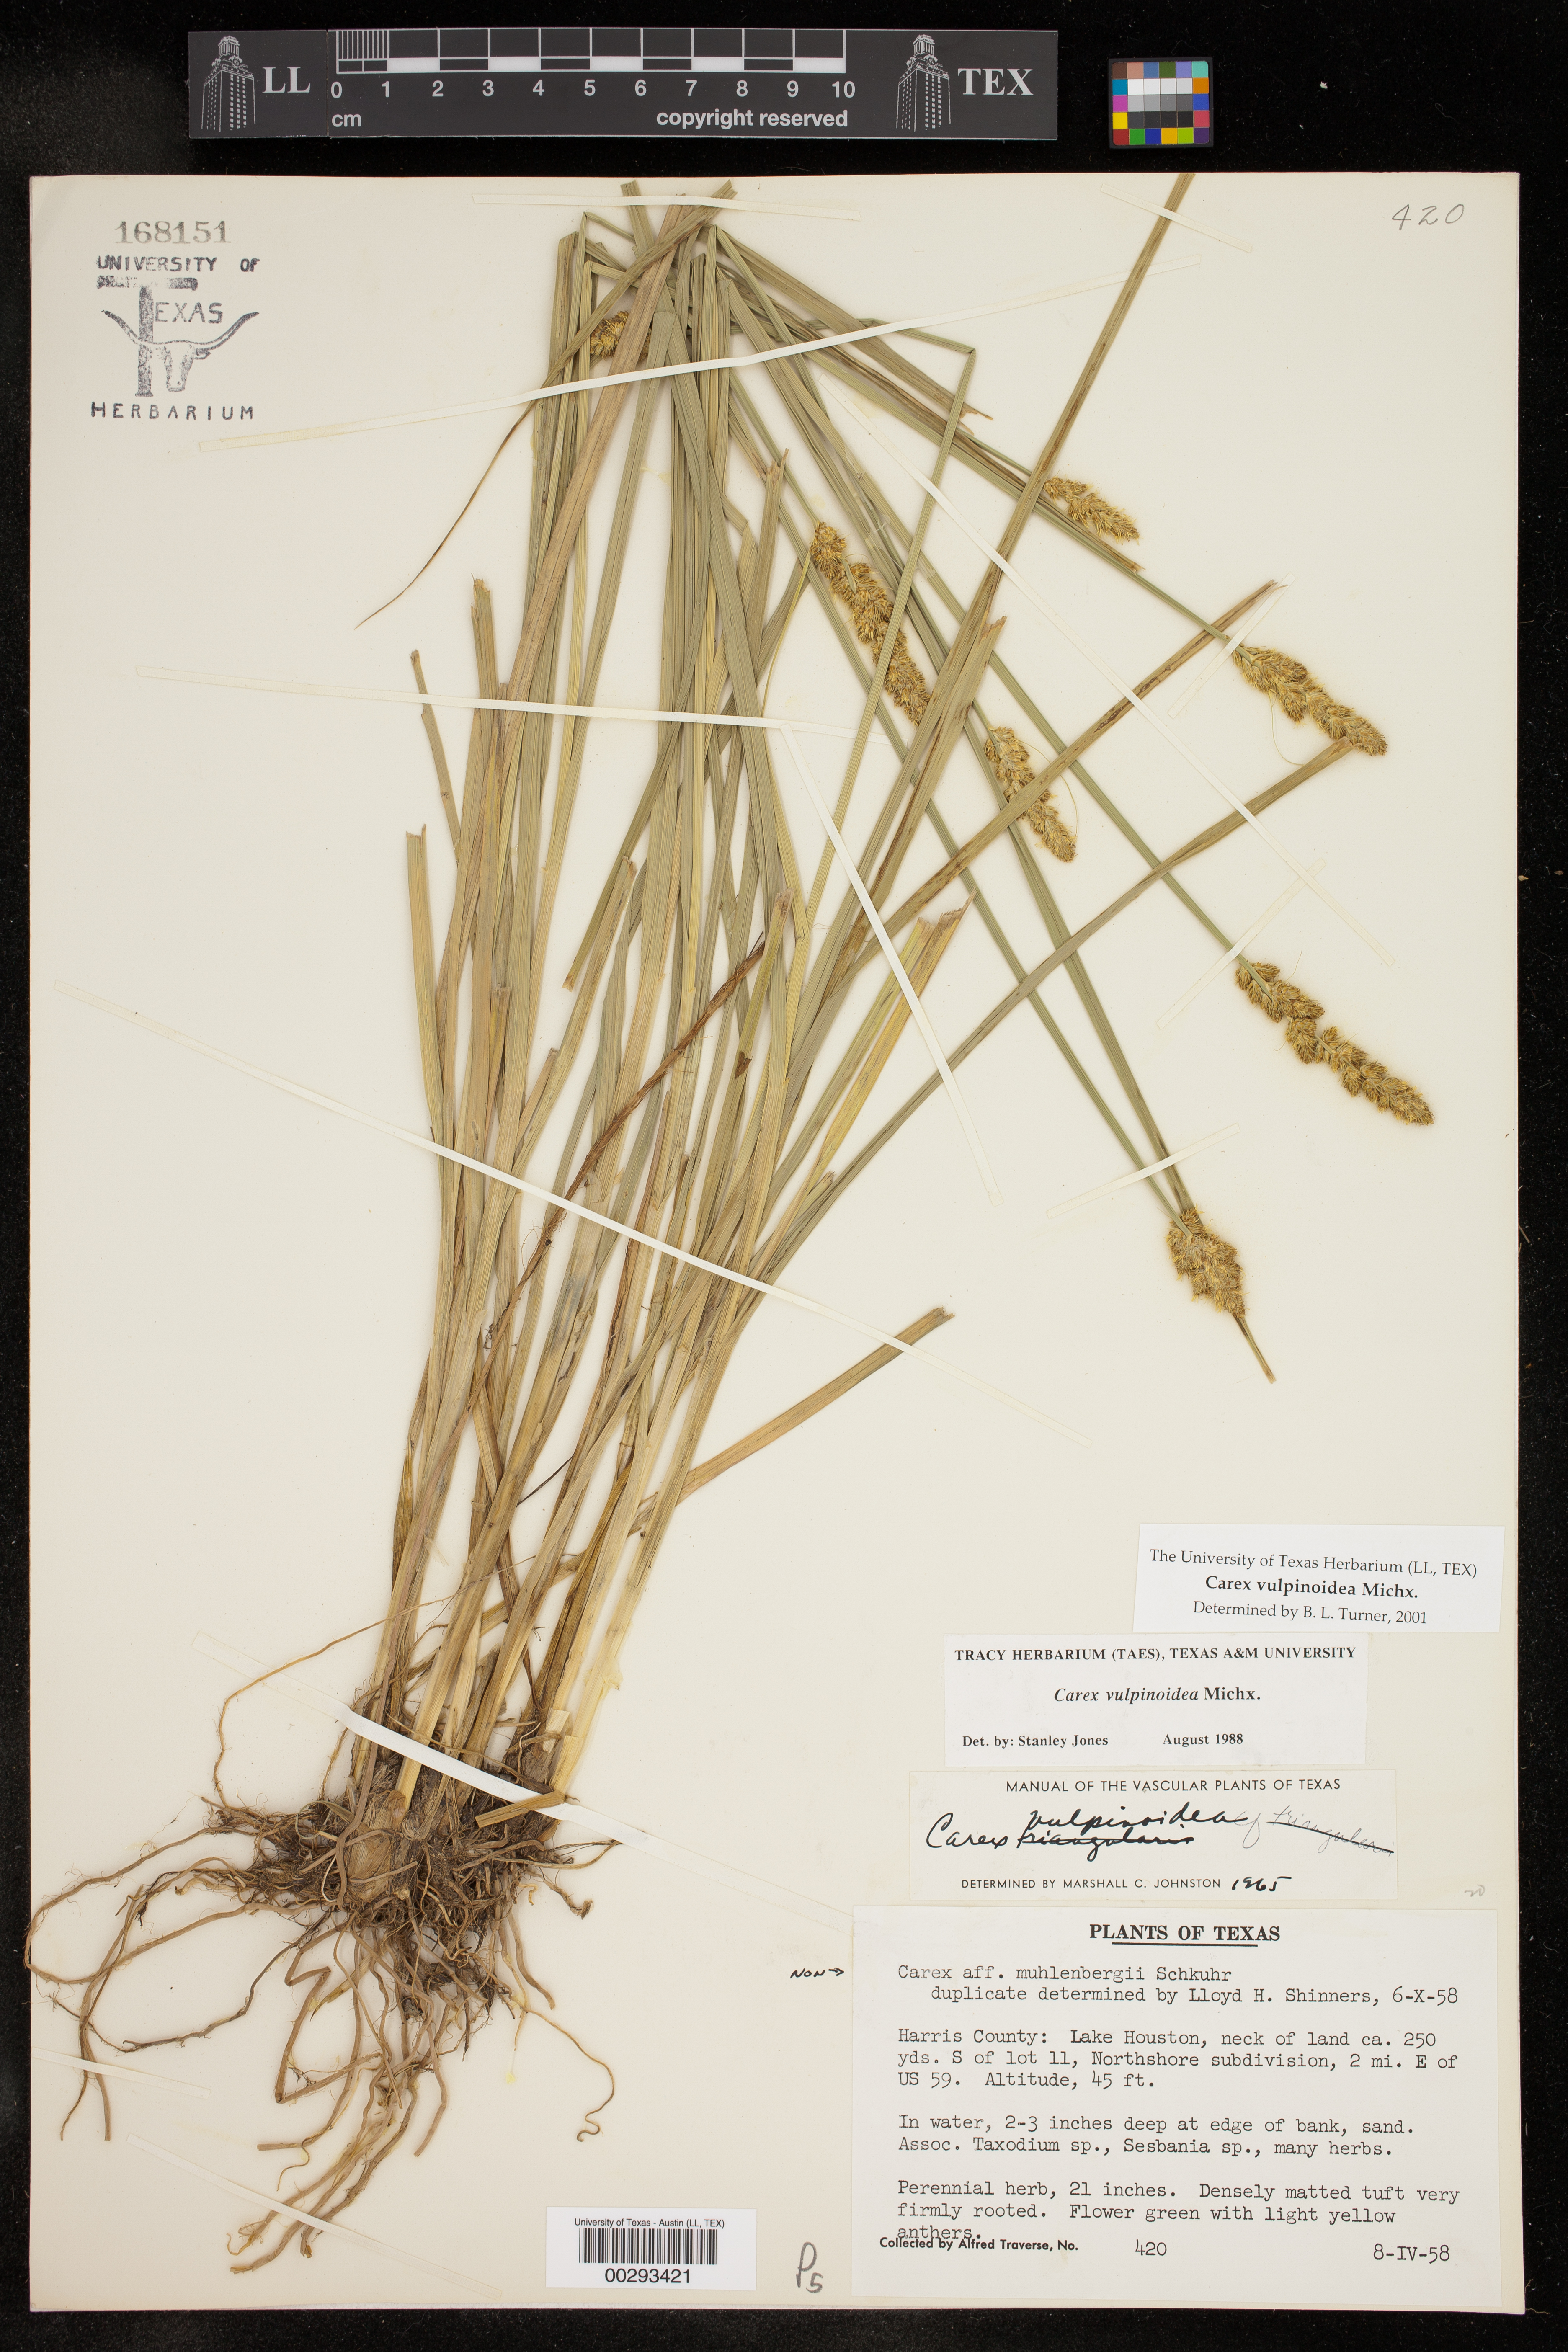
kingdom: Plantae
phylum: Tracheophyta
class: Liliopsida
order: Poales
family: Cyperaceae
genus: Carex
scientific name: Carex vulpinoidea
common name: American fox-sedge
